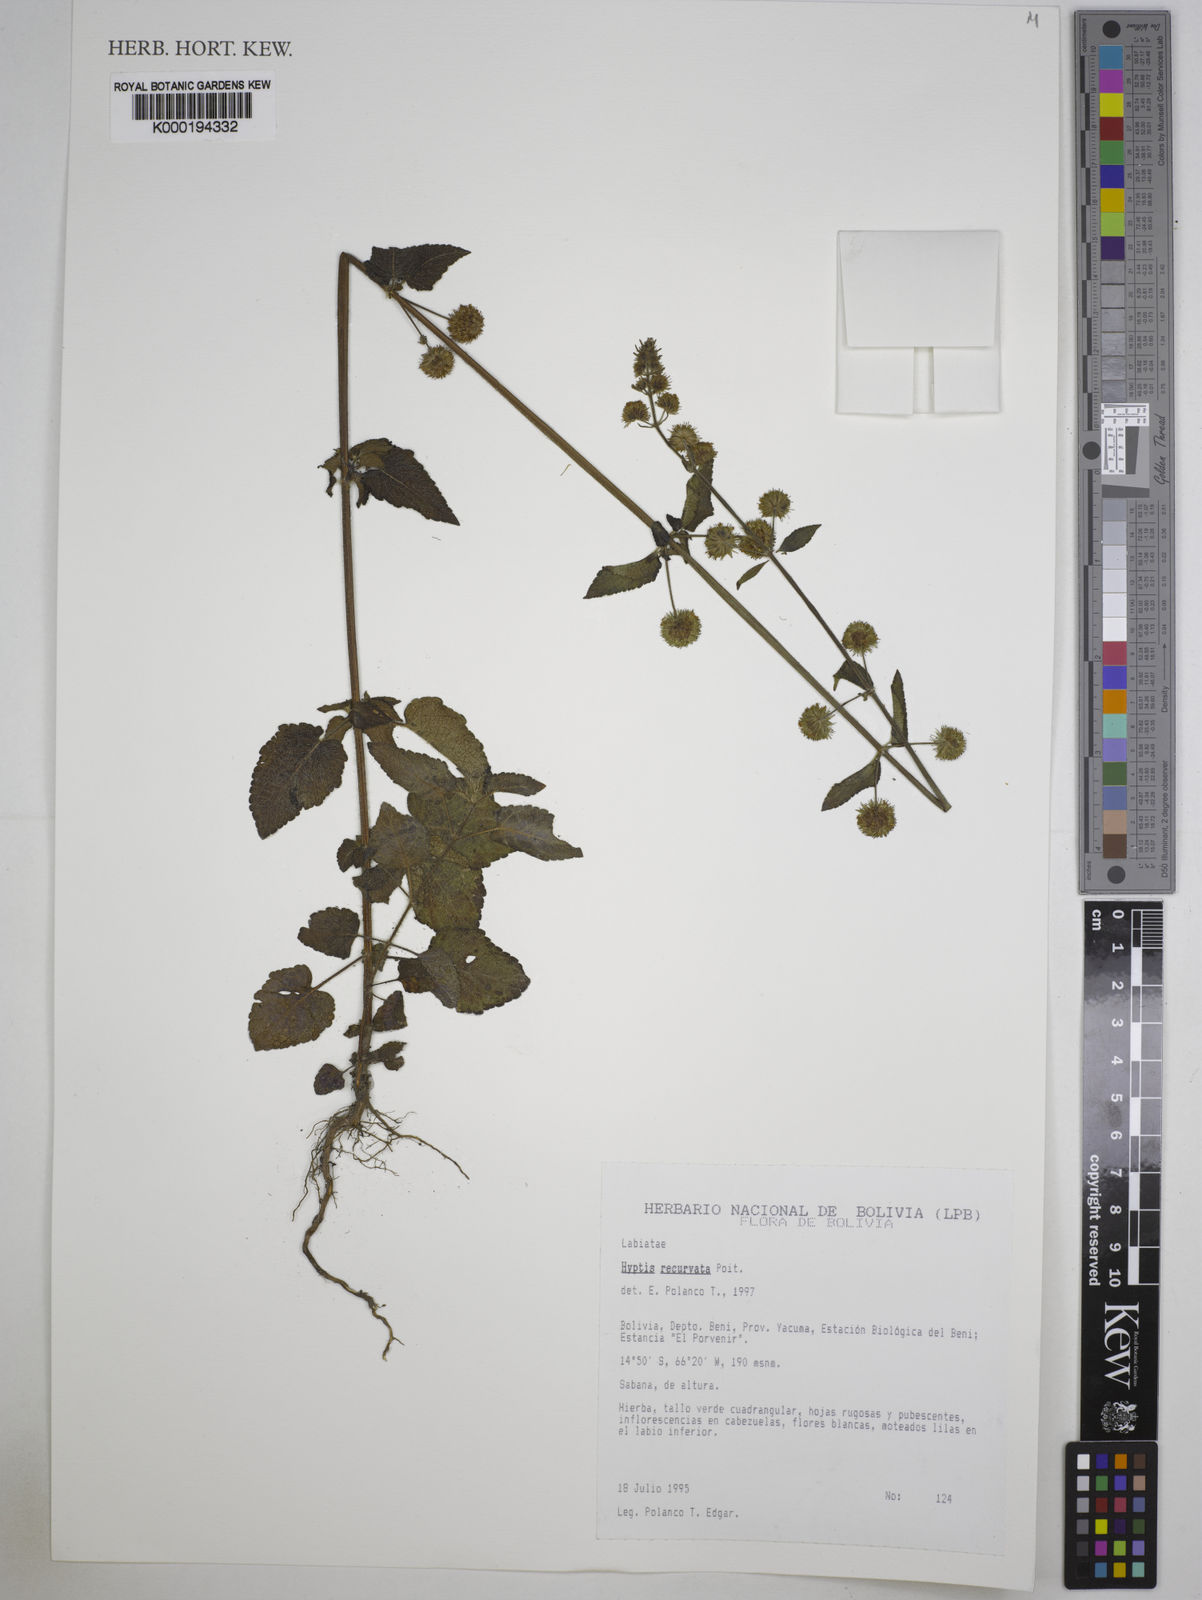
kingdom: Plantae
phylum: Tracheophyta
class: Magnoliopsida
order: Lamiales
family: Lamiaceae
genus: Hyptis
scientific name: Hyptis recurvata
